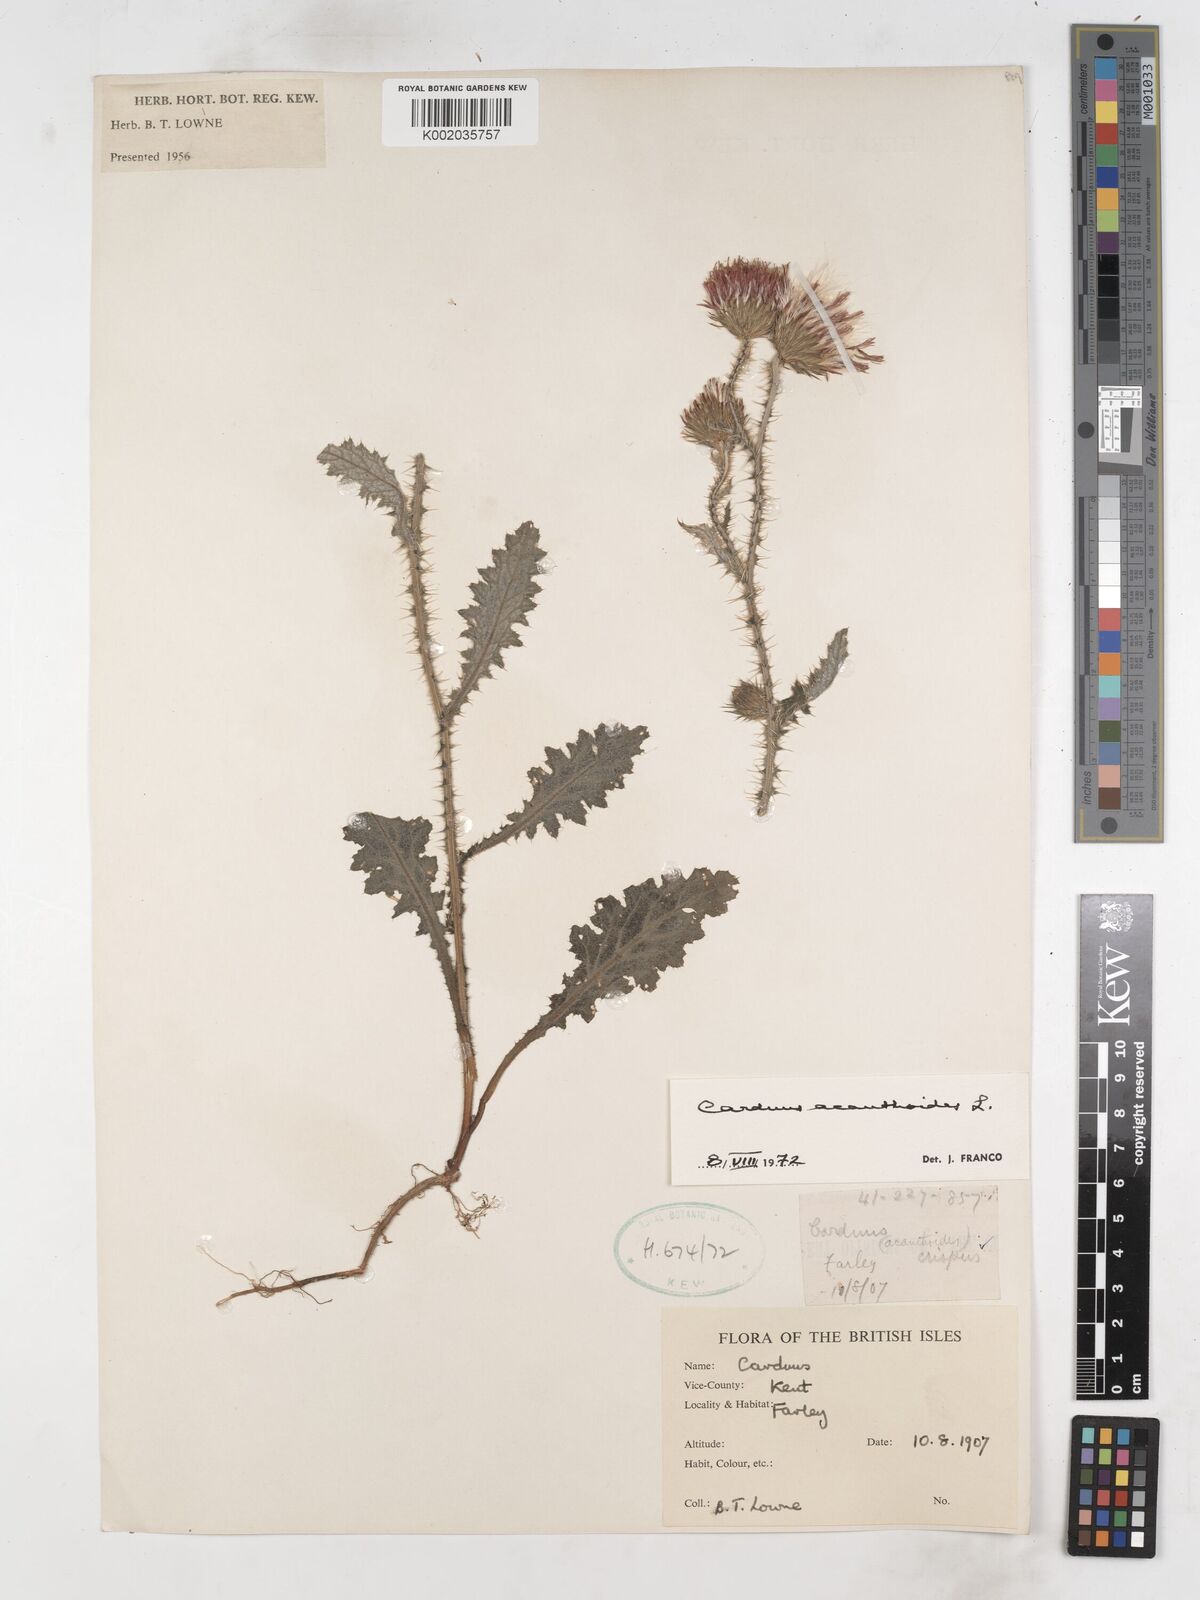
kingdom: Plantae
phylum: Tracheophyta
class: Magnoliopsida
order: Asterales
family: Asteraceae
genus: Carduus
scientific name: Carduus acanthoides
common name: Plumeless thistle
